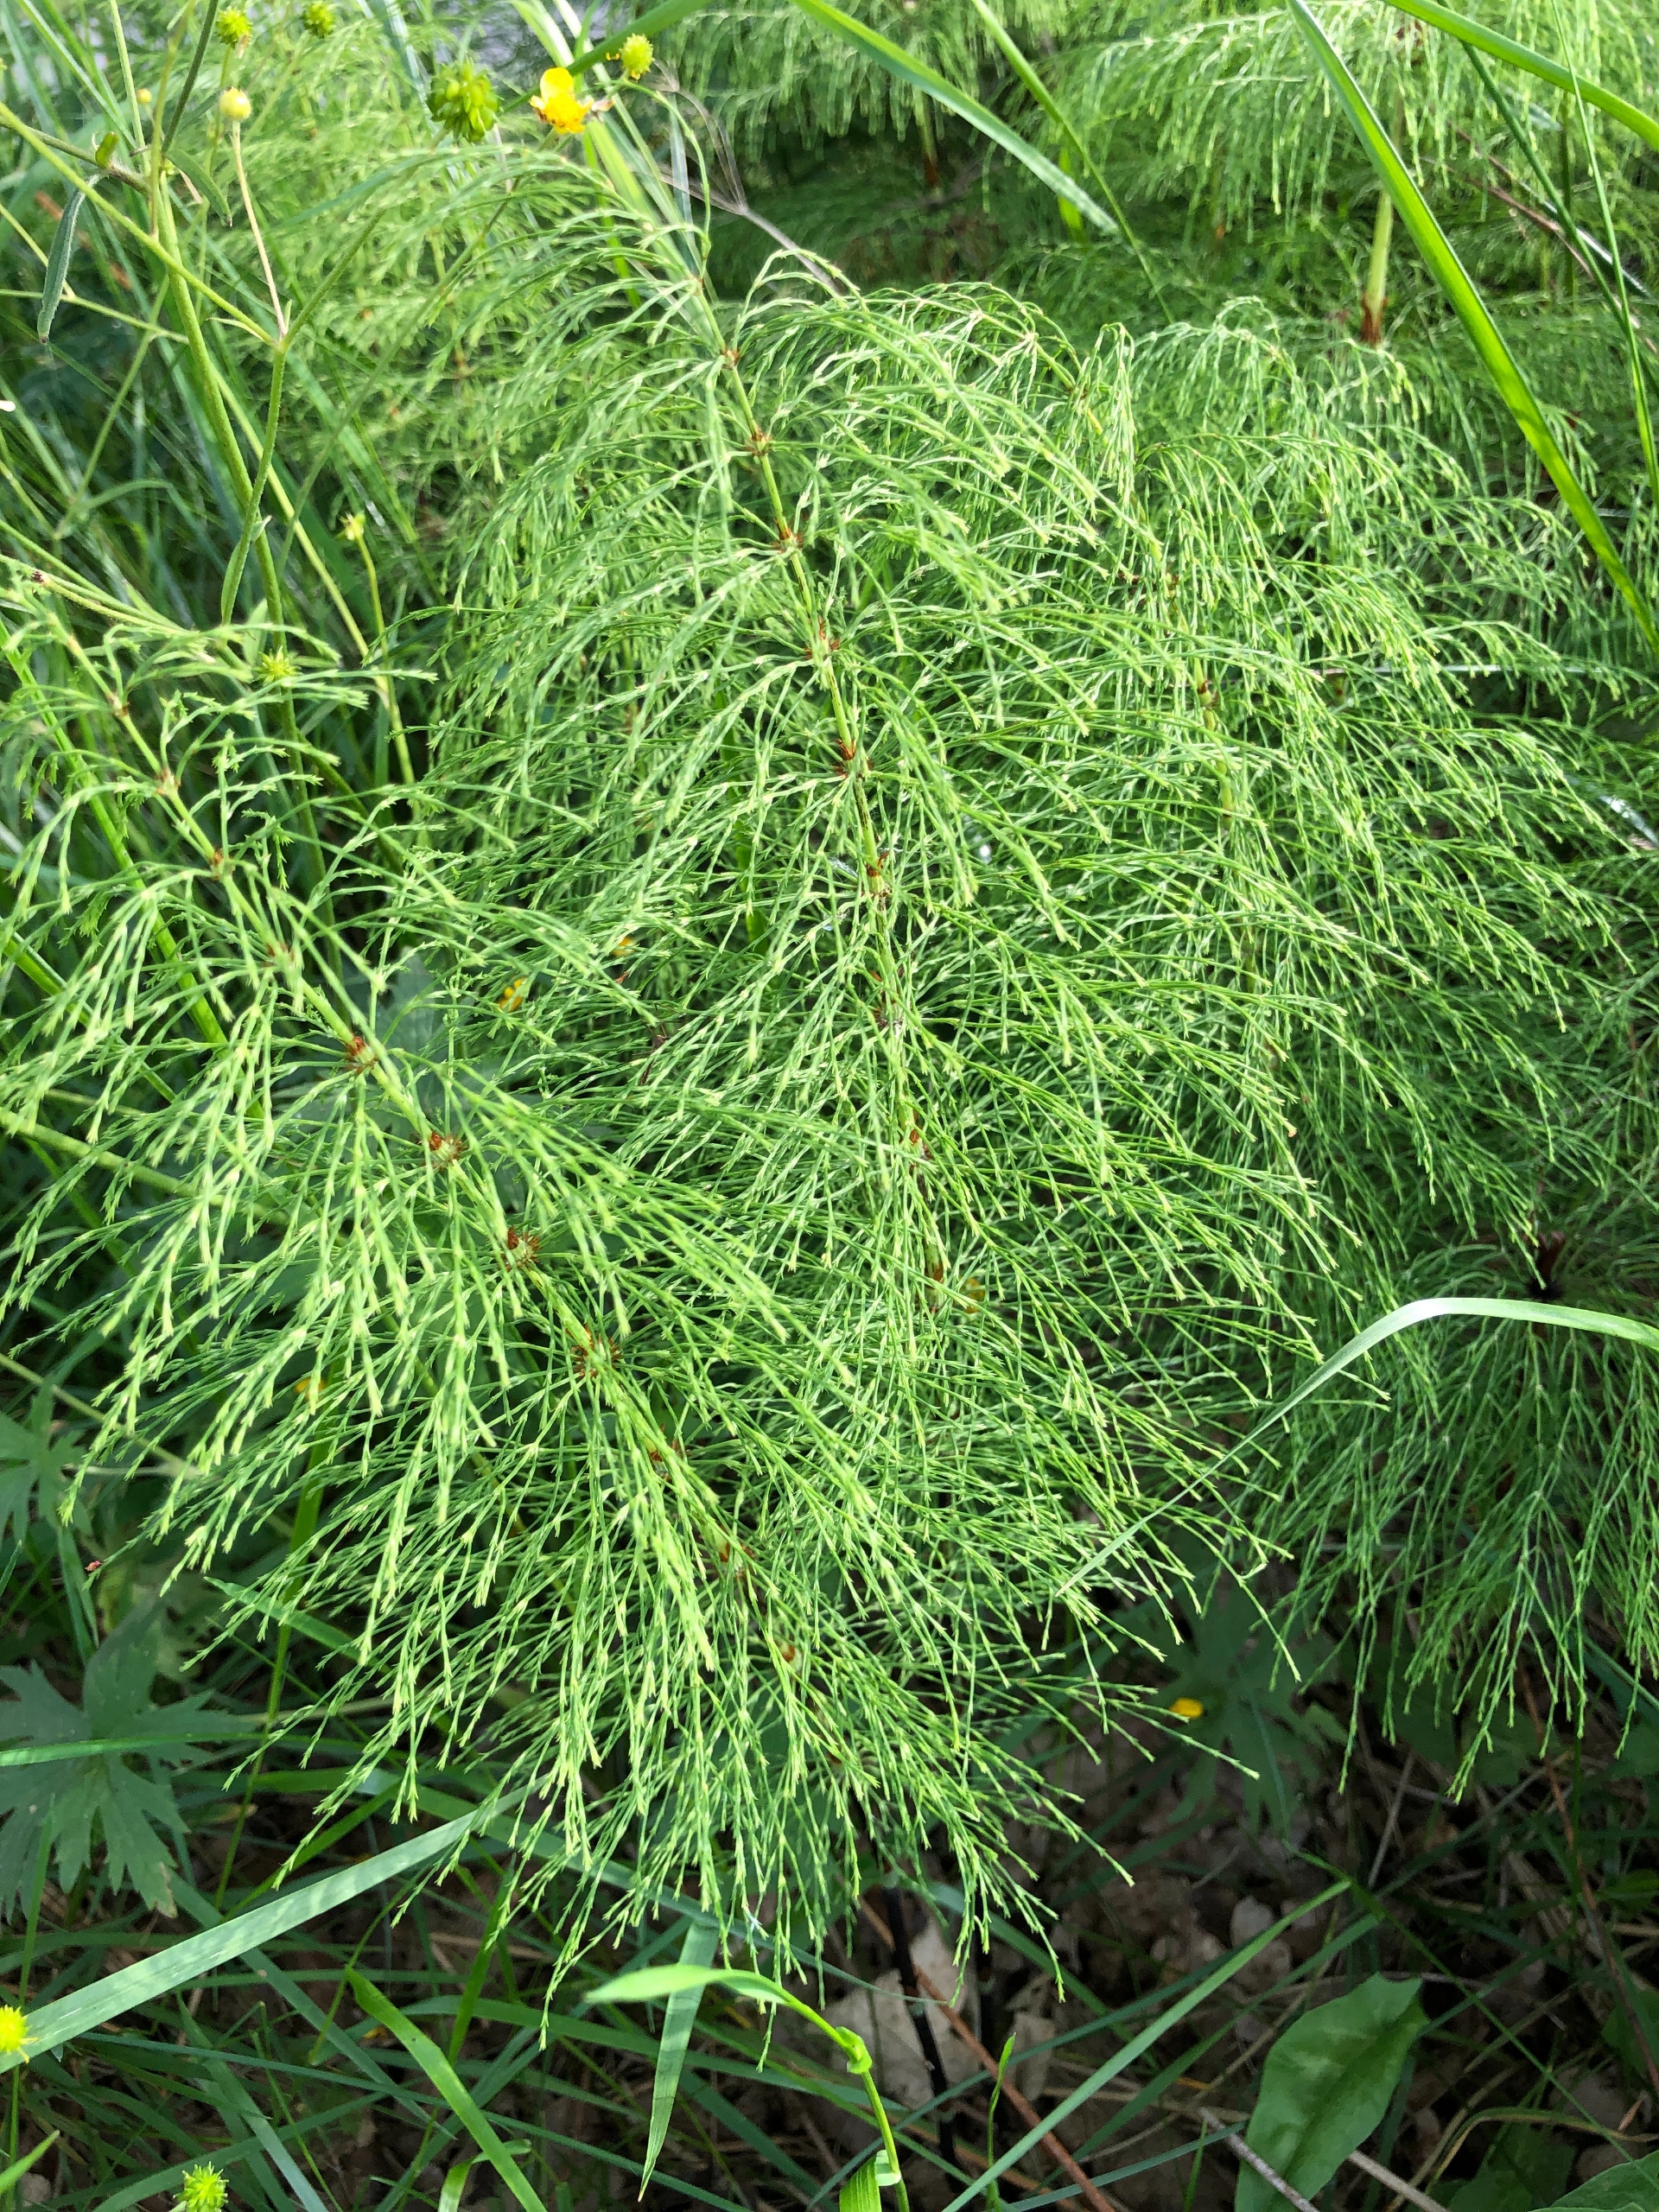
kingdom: Plantae
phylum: Tracheophyta
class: Polypodiopsida
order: Equisetales
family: Equisetaceae
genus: Equisetum
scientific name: Equisetum sylvaticum
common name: Skov-padderok
